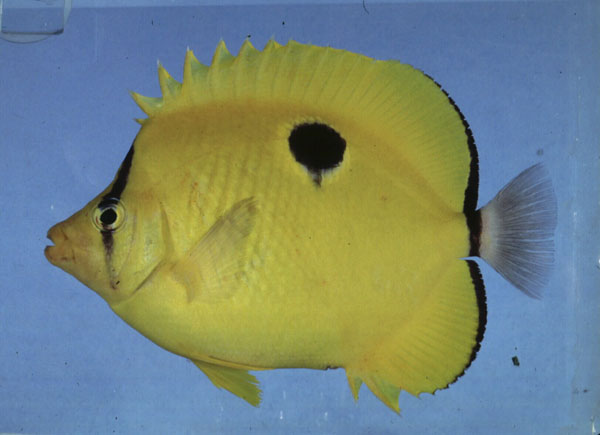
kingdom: Animalia
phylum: Chordata
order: Perciformes
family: Chaetodontidae
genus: Chaetodon
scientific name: Chaetodon unimaculatus
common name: Teardrop butterflyfish
